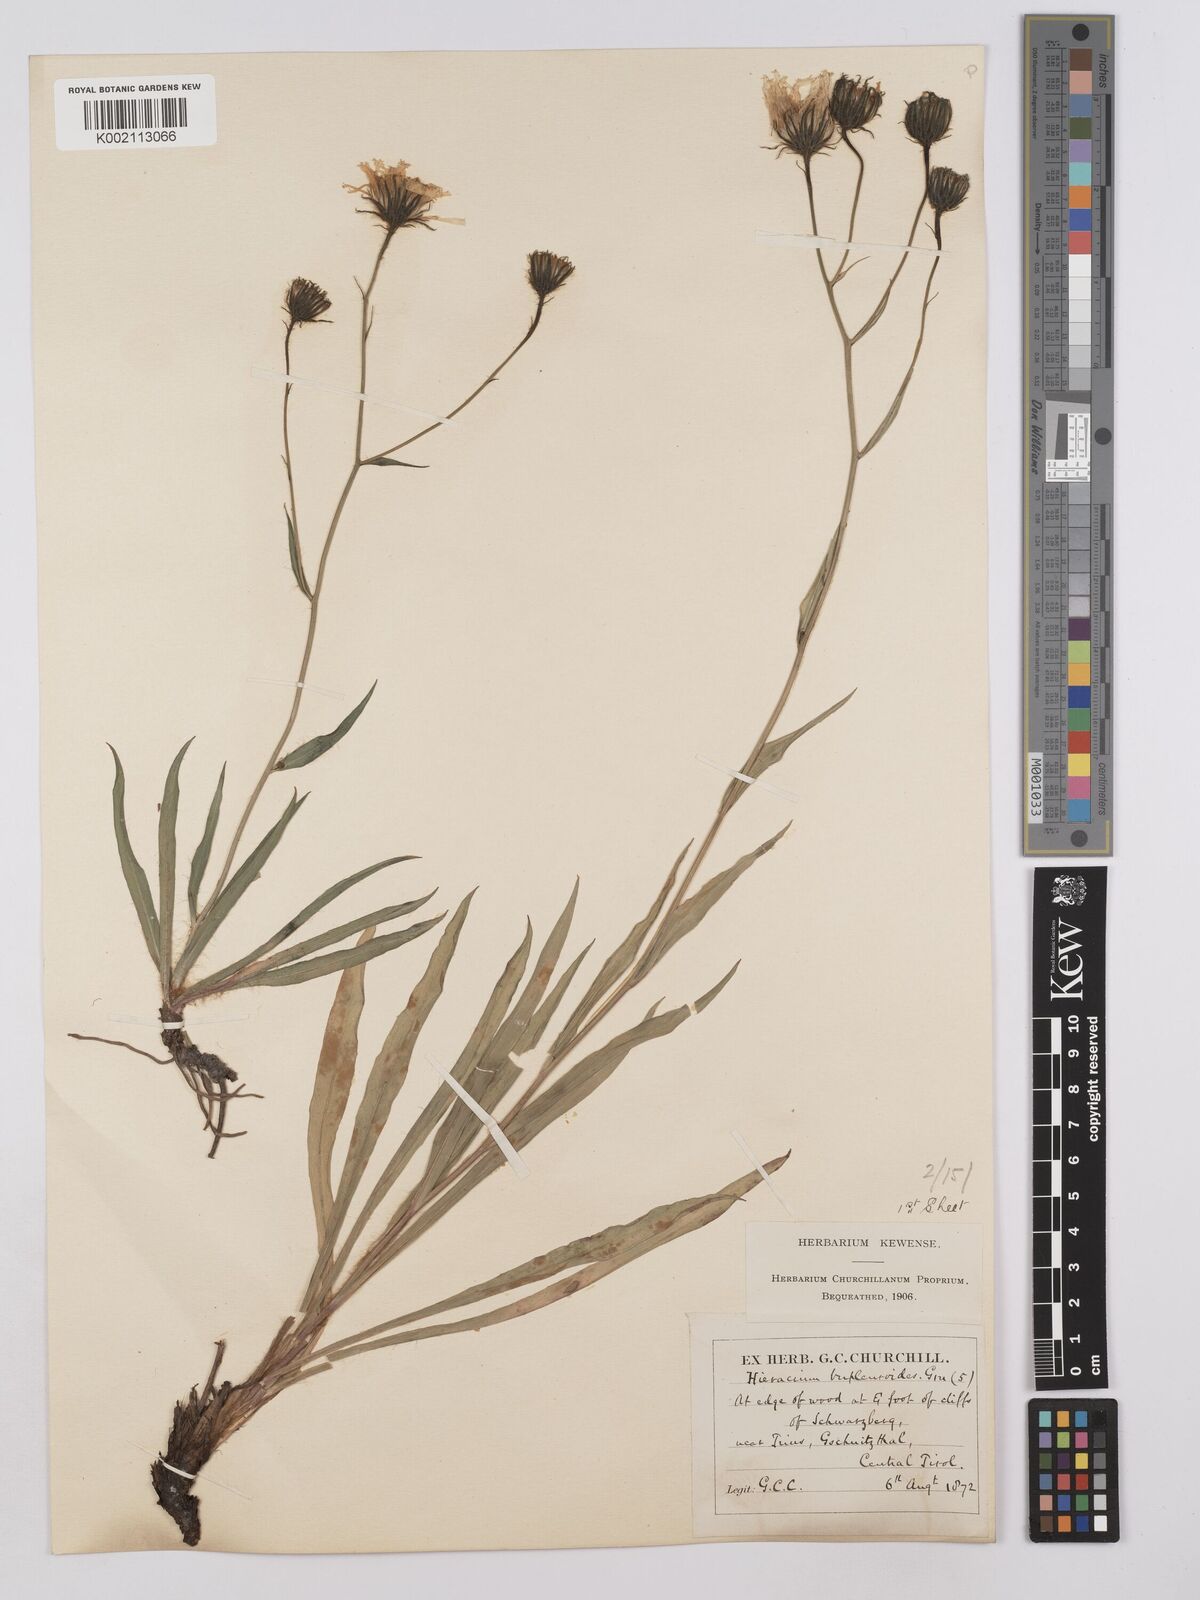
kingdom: Plantae
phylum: Tracheophyta
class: Magnoliopsida
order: Asterales
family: Asteraceae
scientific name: Asteraceae
